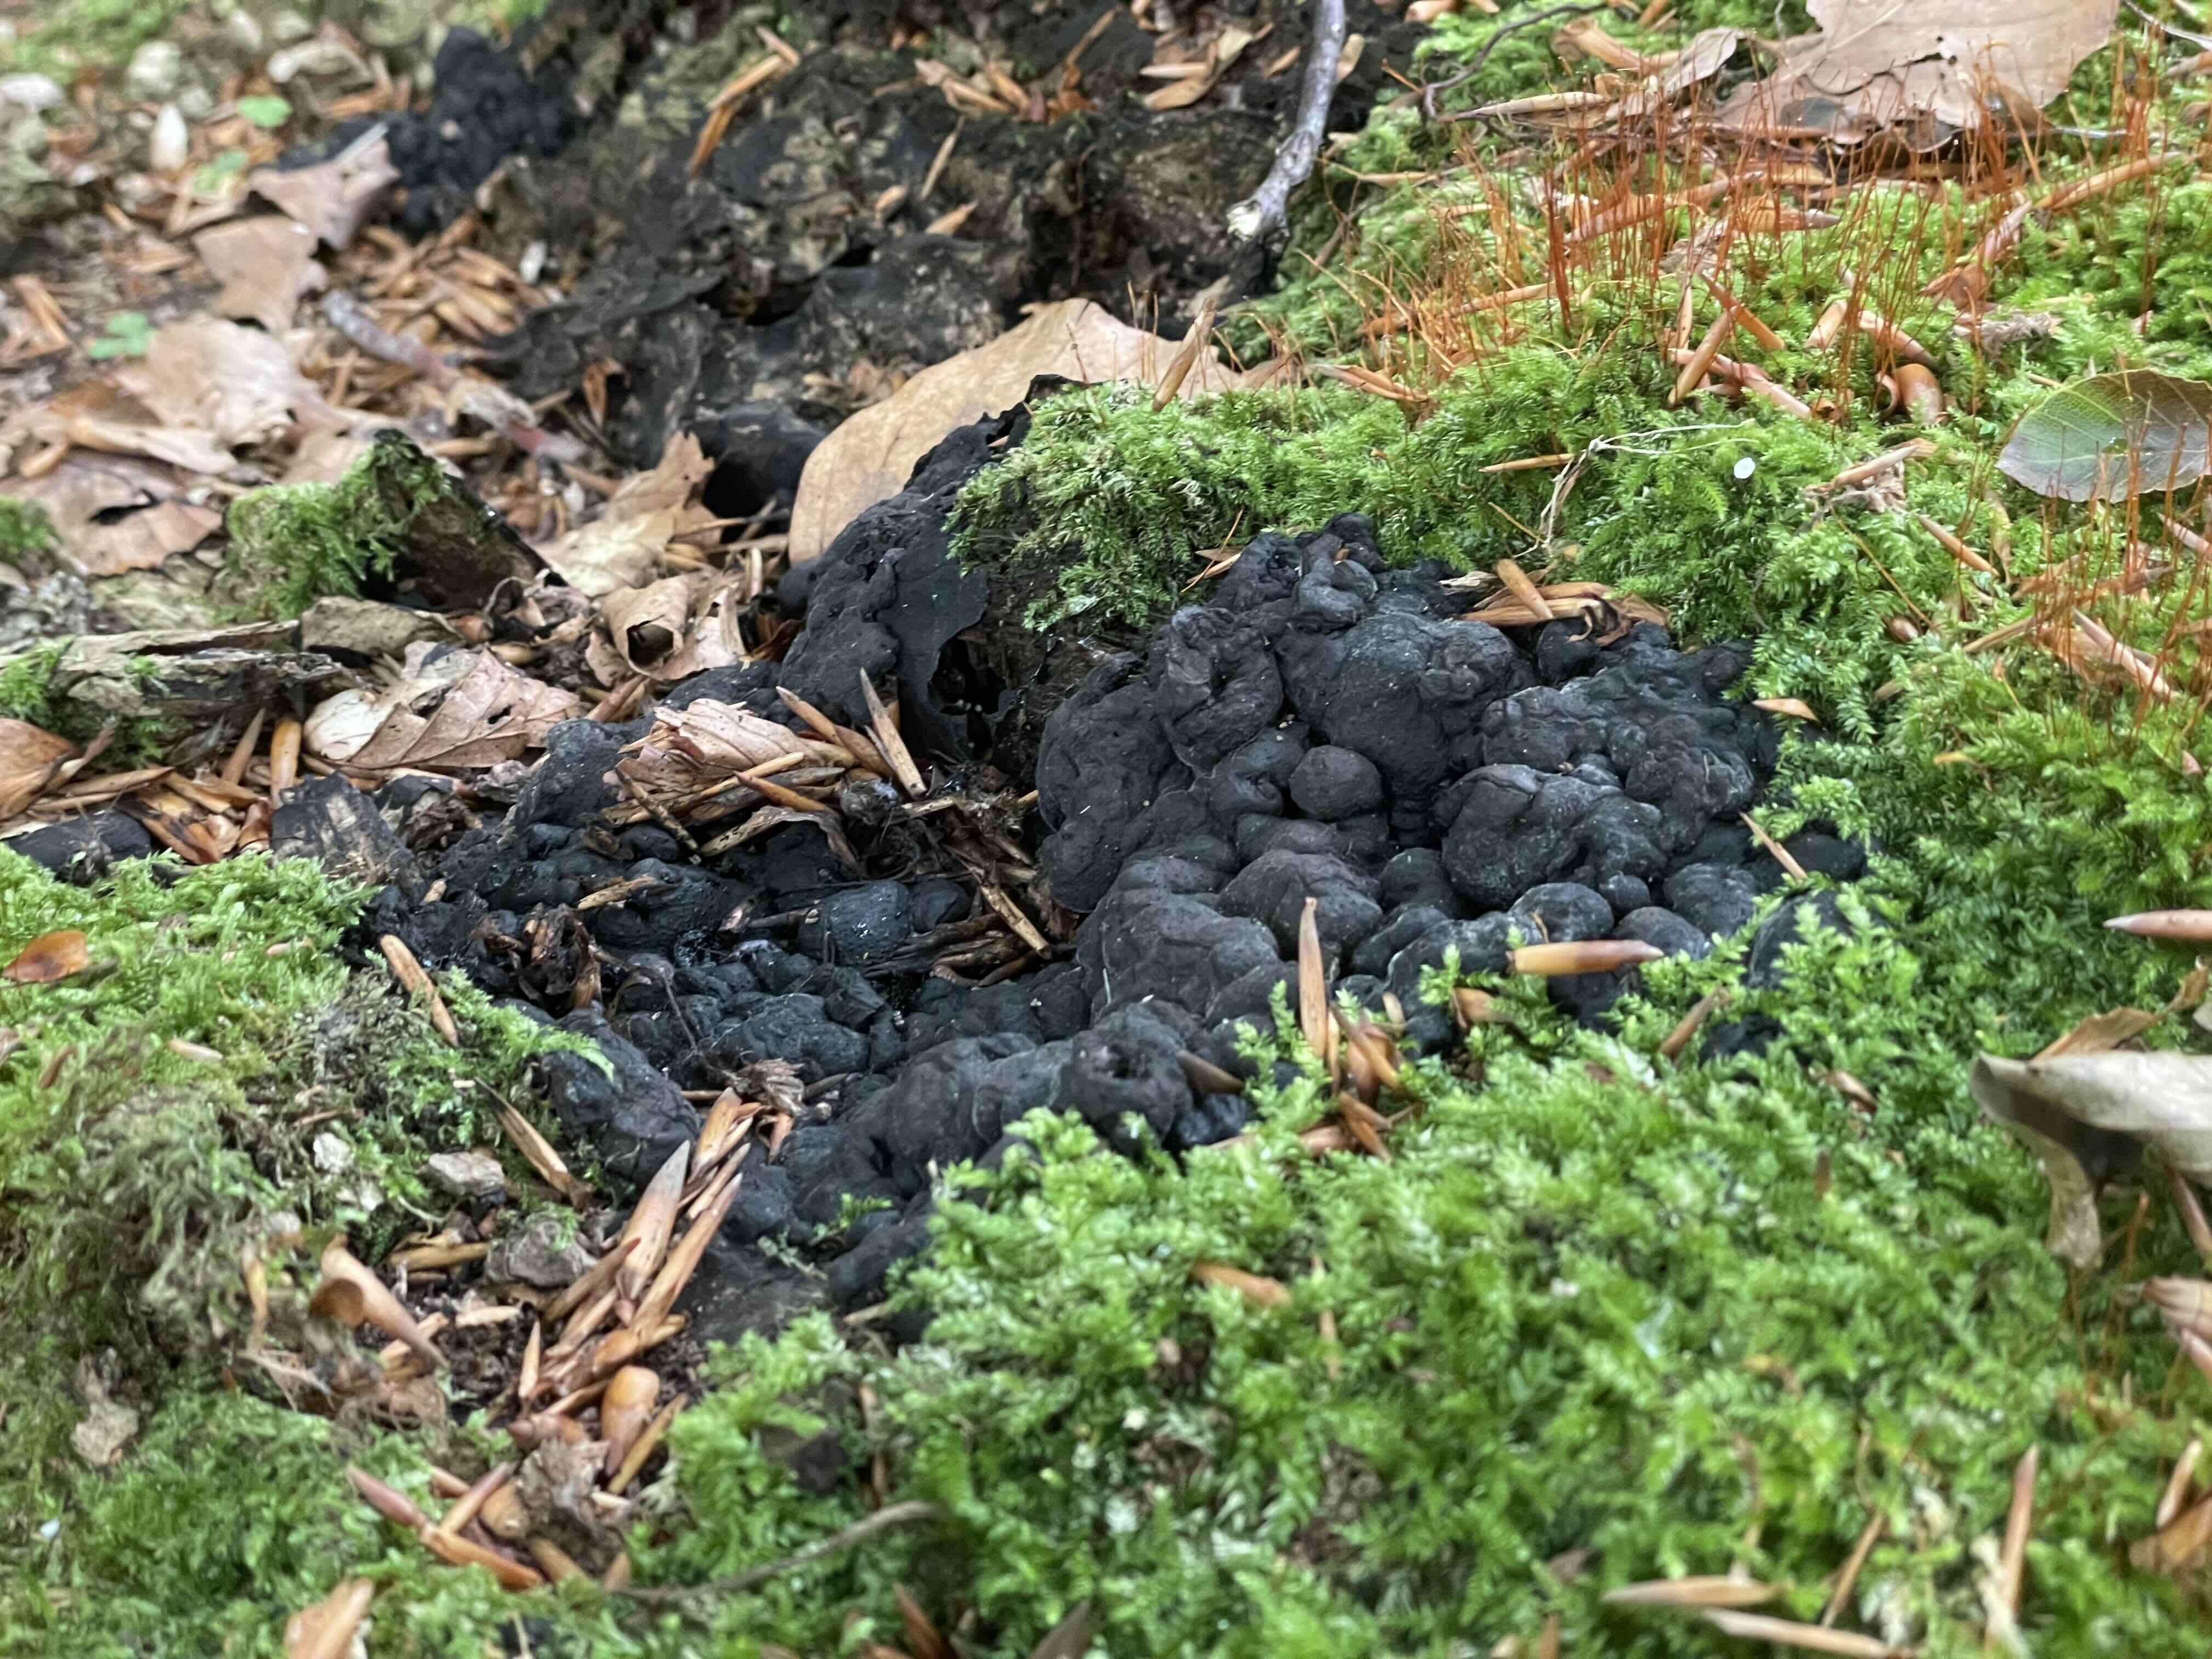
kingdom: Fungi
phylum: Ascomycota
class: Sordariomycetes
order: Xylariales
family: Xylariaceae
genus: Kretzschmaria
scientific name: Kretzschmaria deusta
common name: stor kulsvamp
